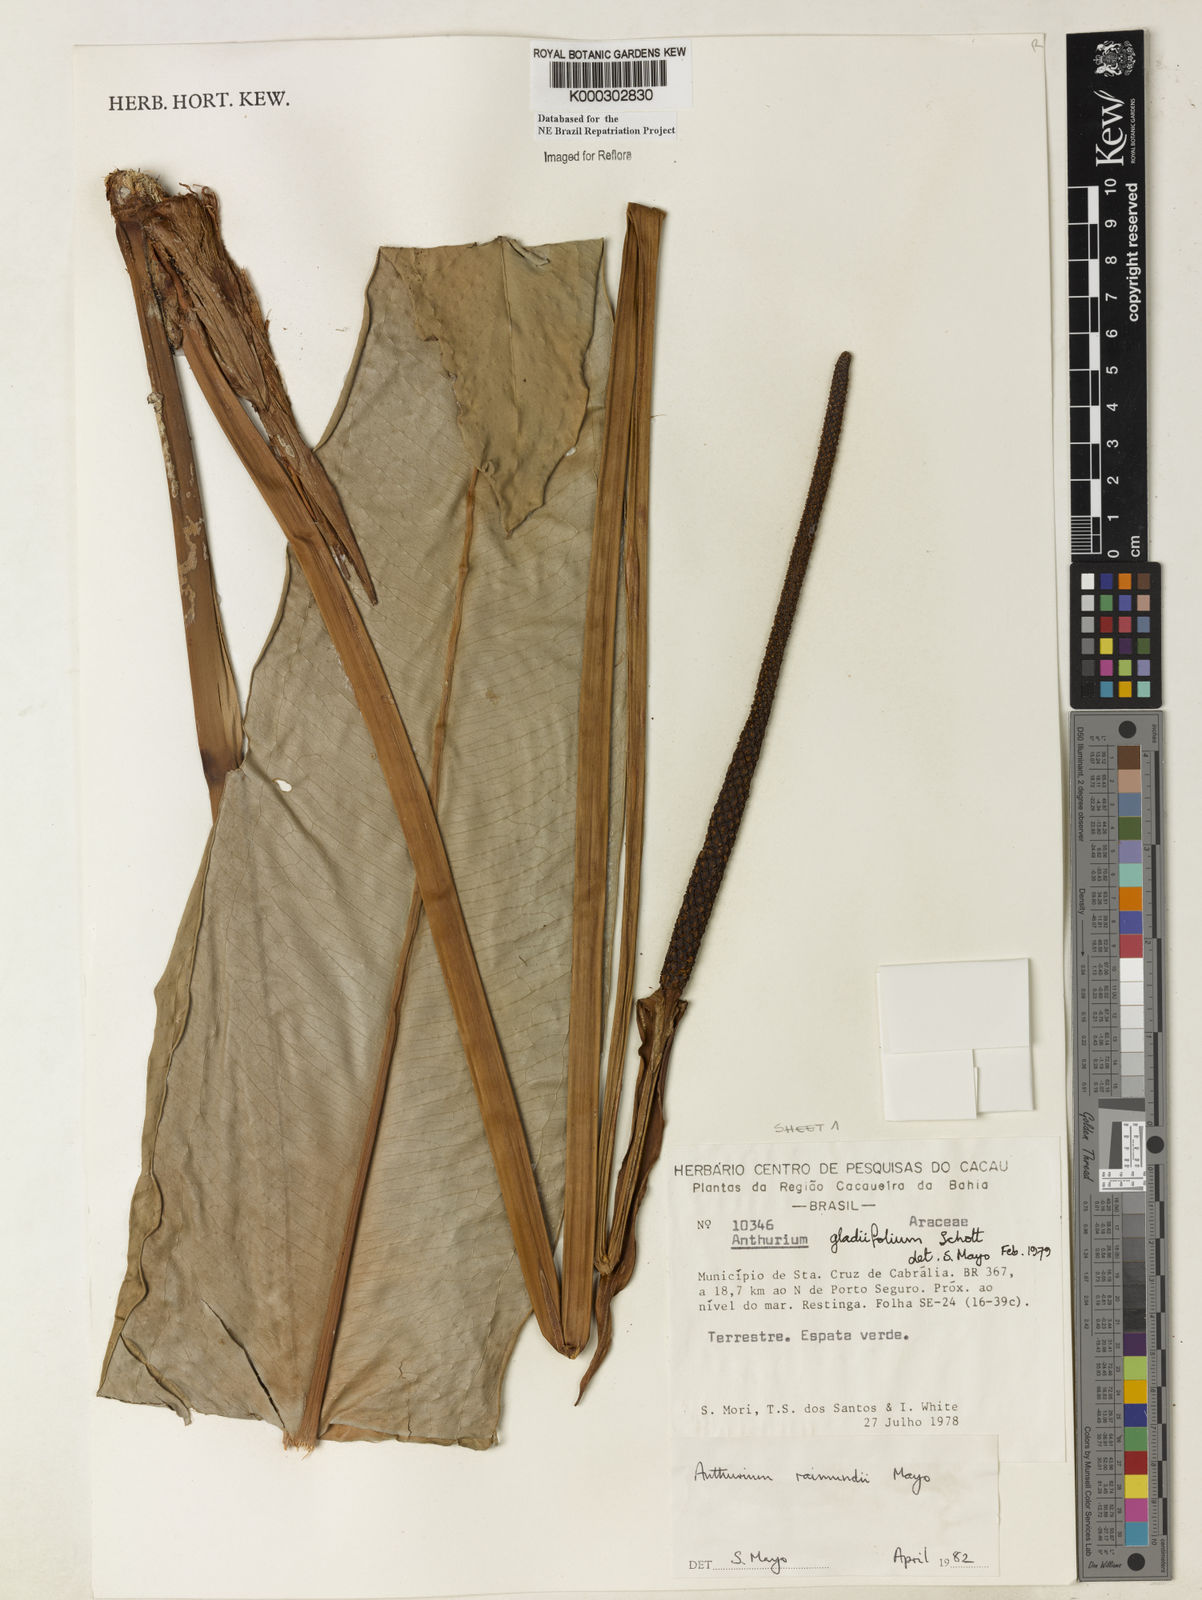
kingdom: Plantae
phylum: Tracheophyta
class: Liliopsida
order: Alismatales
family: Araceae
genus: Anthurium
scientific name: Anthurium raimundii
